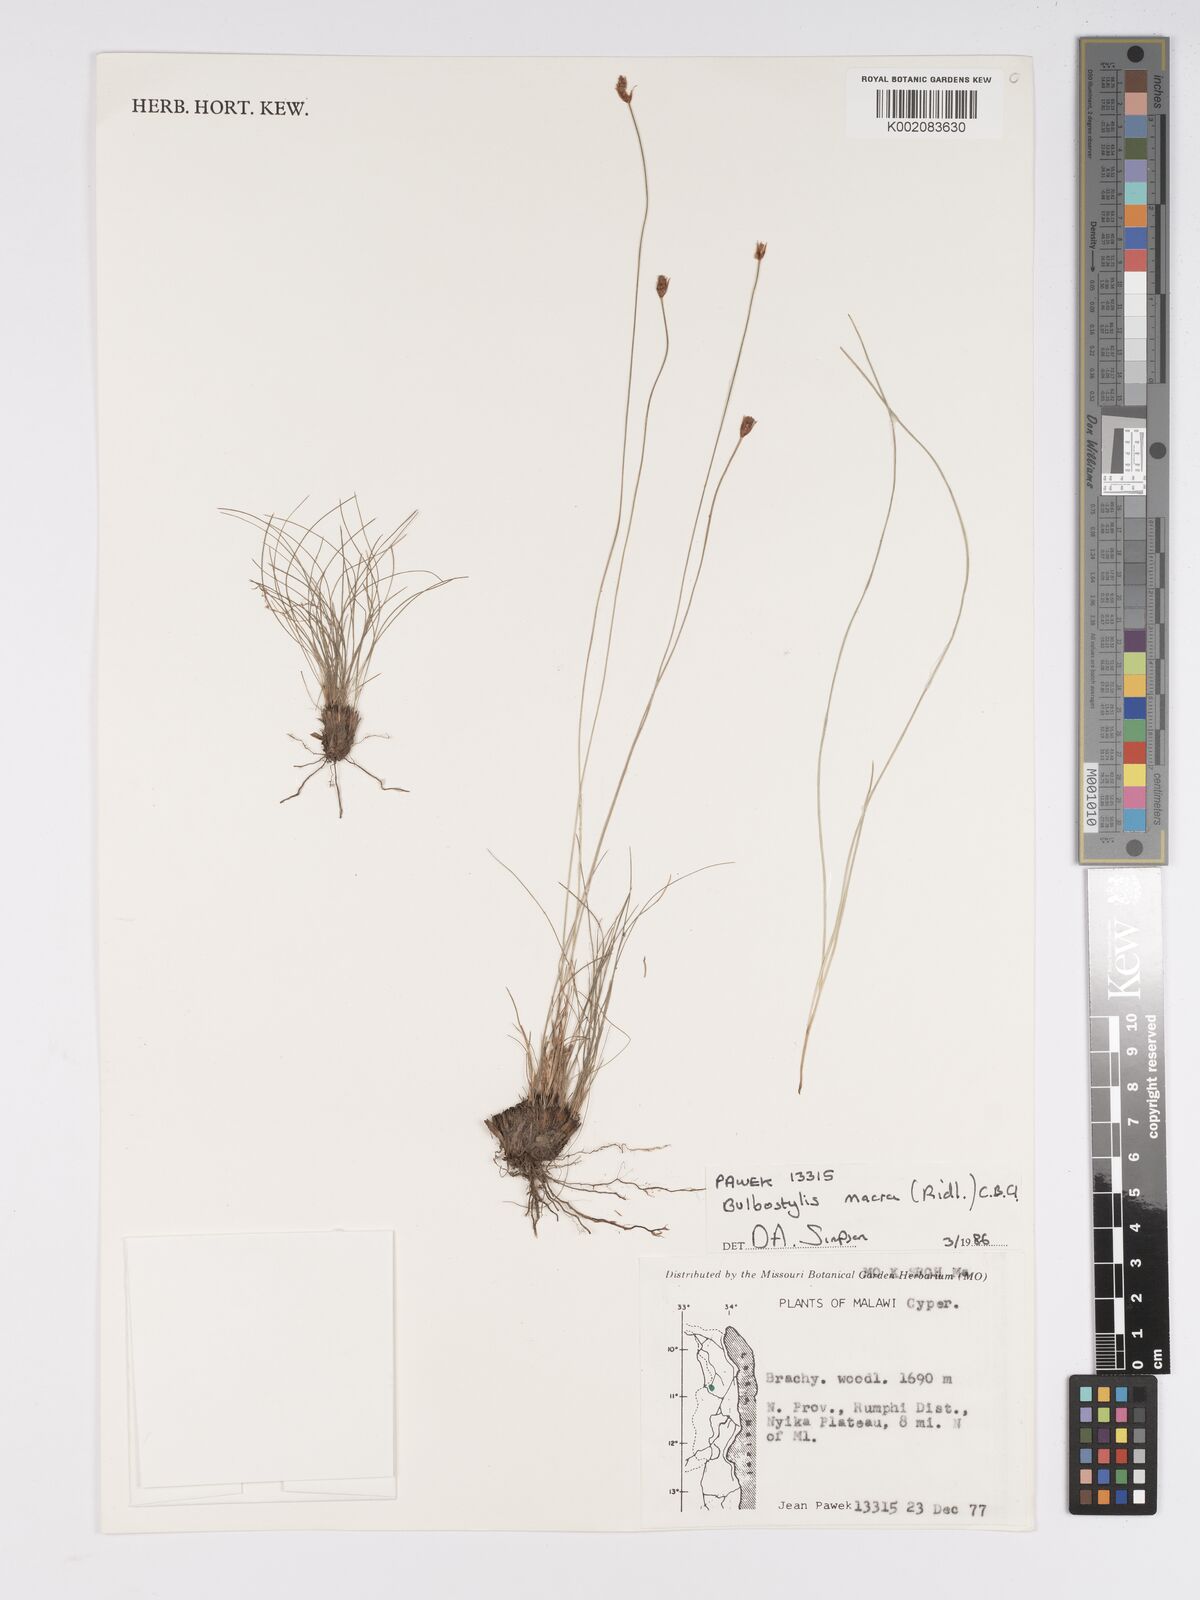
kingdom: Plantae
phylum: Tracheophyta
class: Liliopsida
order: Poales
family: Cyperaceae
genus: Bulbostylis
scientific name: Bulbostylis macra
